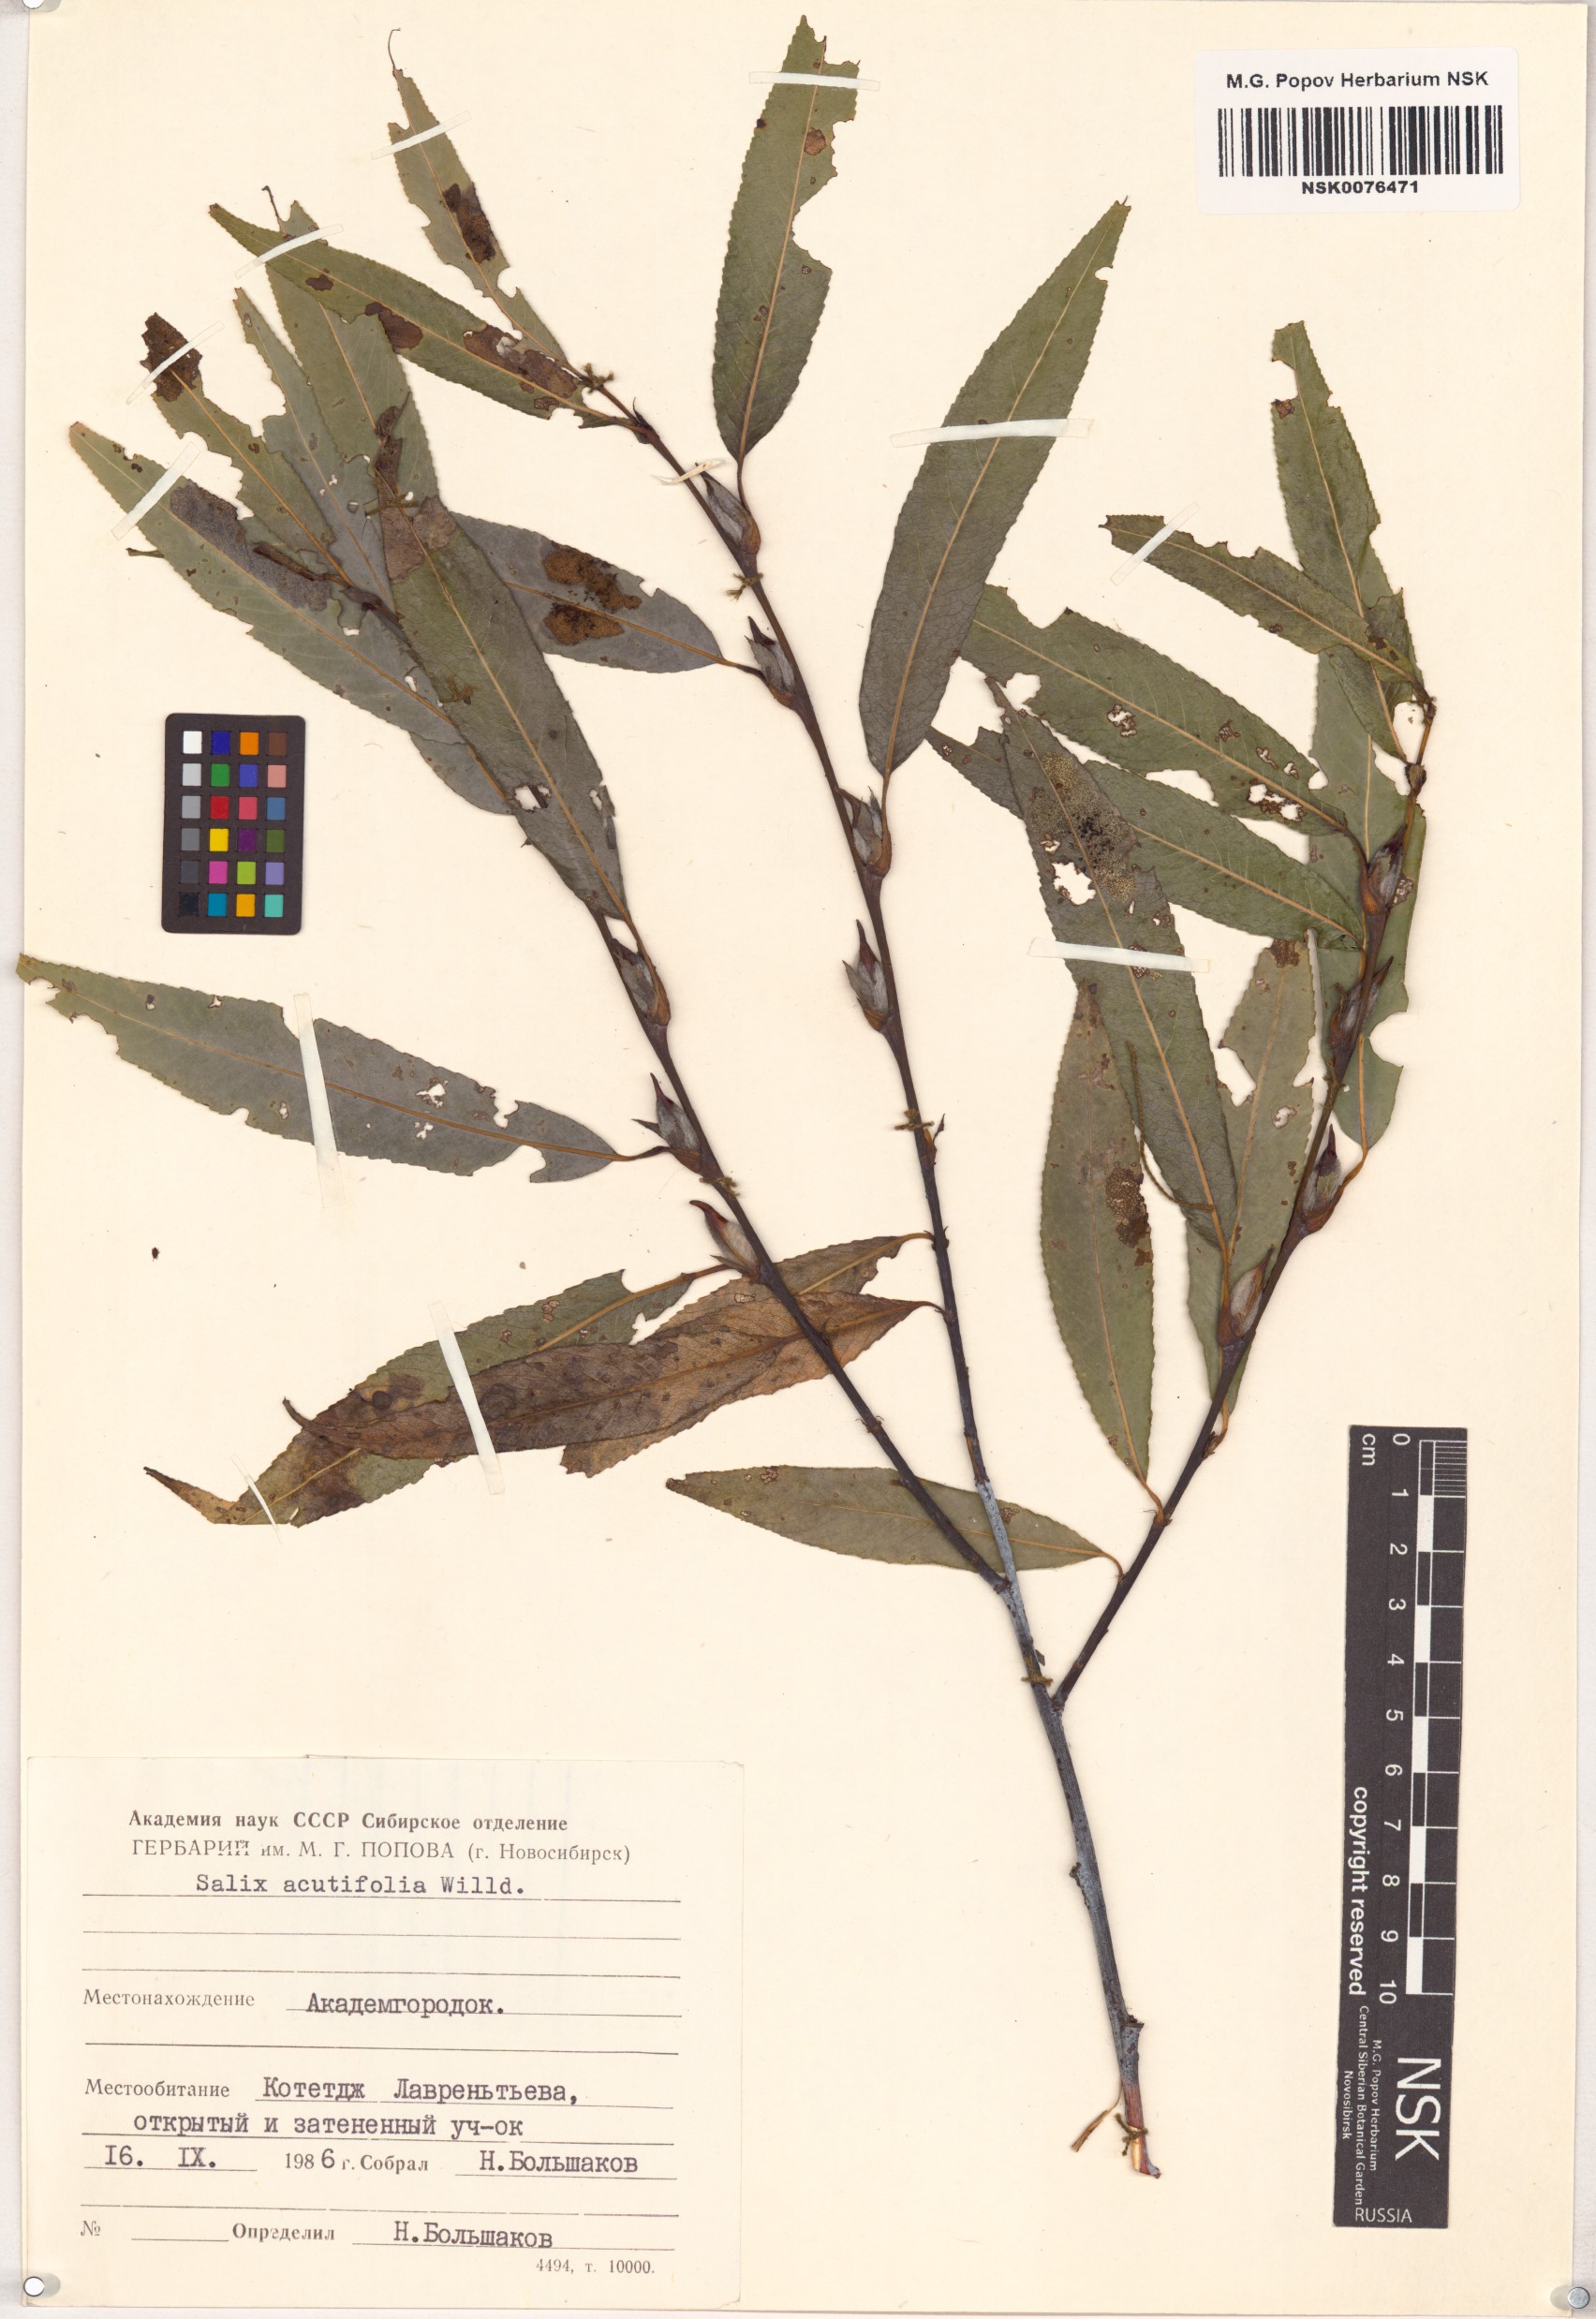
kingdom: Plantae
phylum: Tracheophyta
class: Magnoliopsida
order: Malpighiales
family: Salicaceae
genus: Salix
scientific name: Salix acutifolia
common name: Siberian violet-willow
